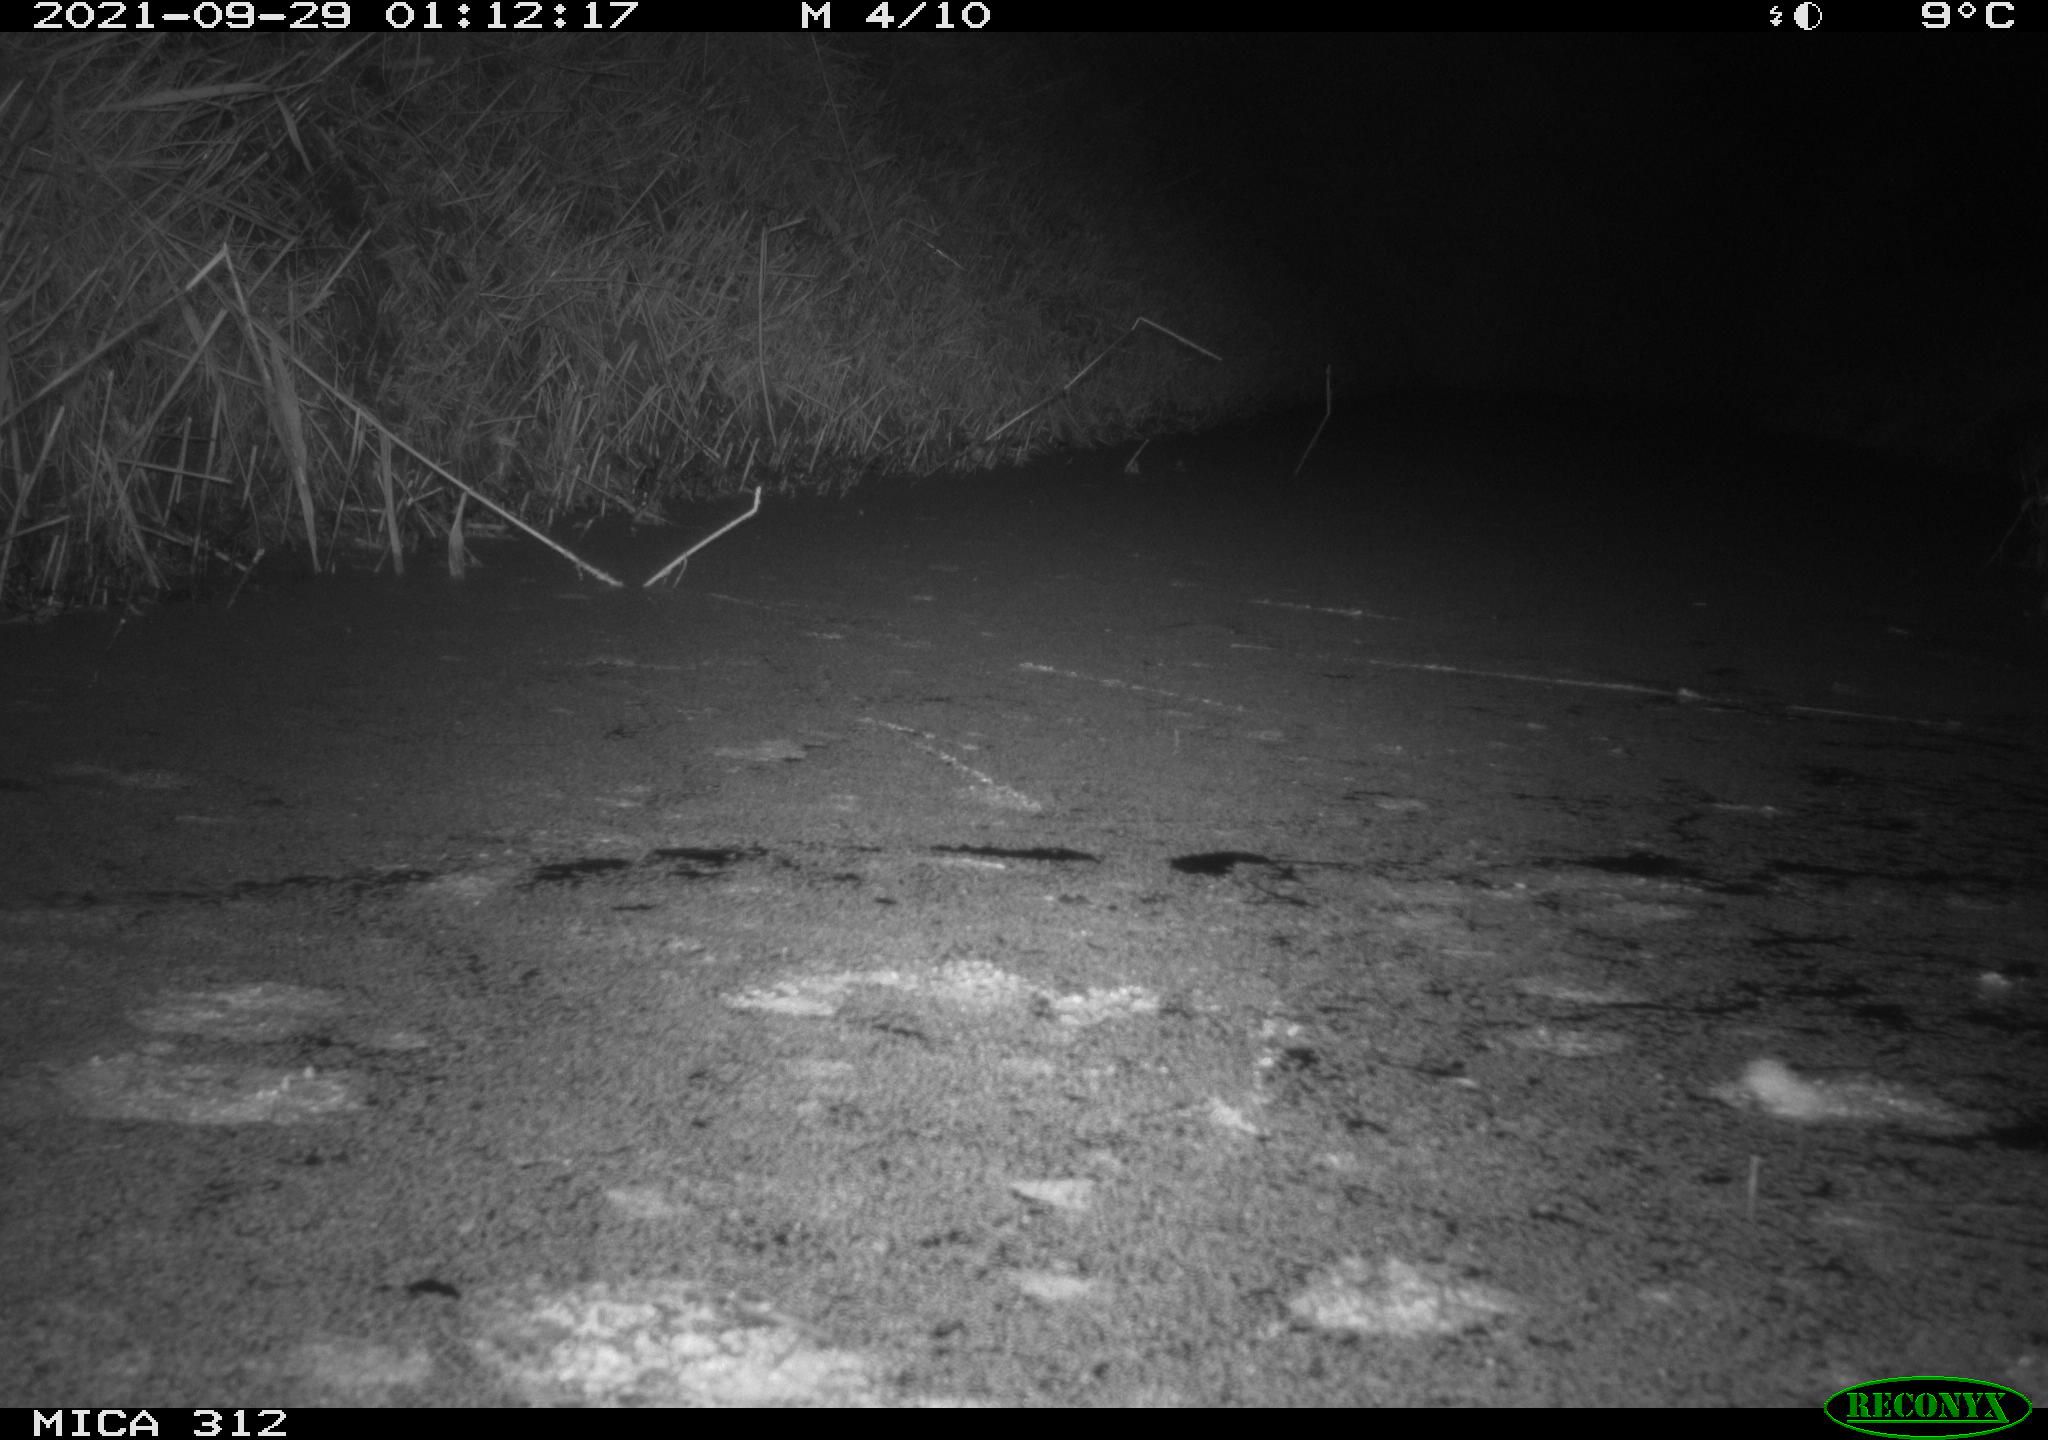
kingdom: Animalia
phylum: Chordata
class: Mammalia
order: Rodentia
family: Muridae
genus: Rattus
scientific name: Rattus norvegicus
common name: Brown rat
